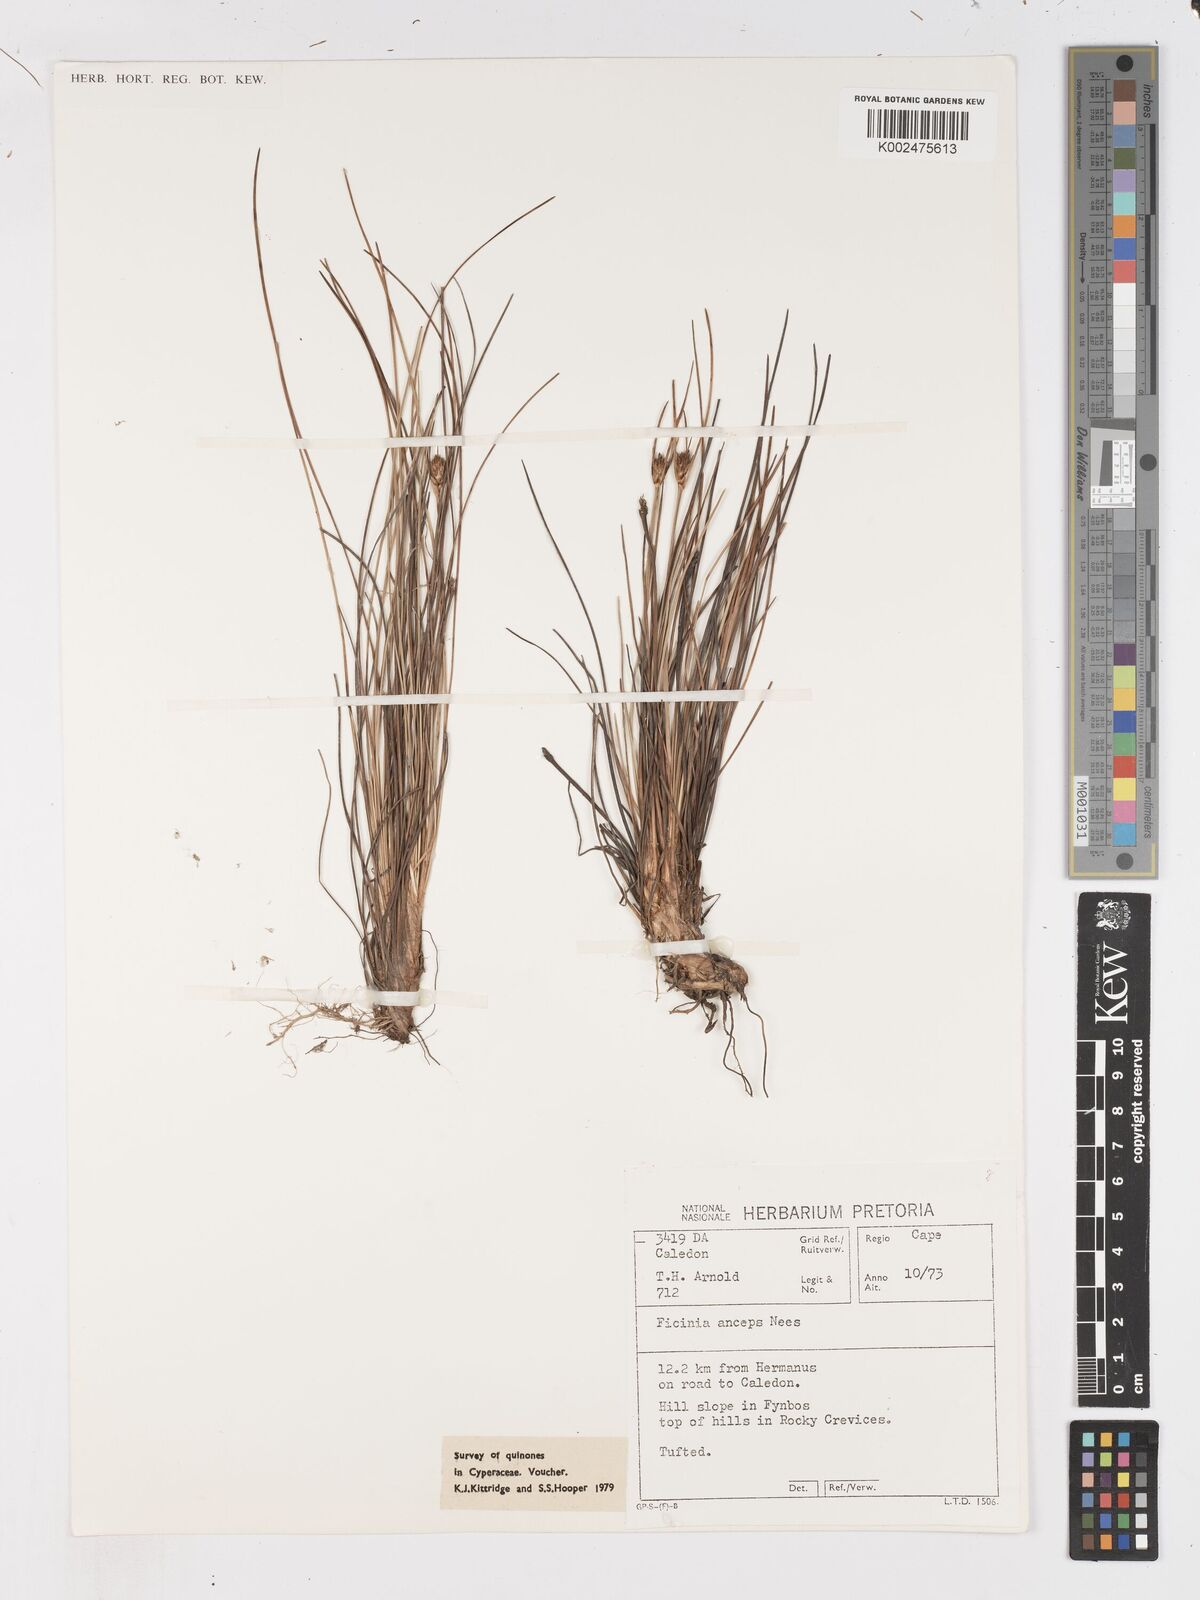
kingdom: Plantae
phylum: Tracheophyta
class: Liliopsida
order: Poales
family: Cyperaceae
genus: Ficinia
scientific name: Ficinia anceps
